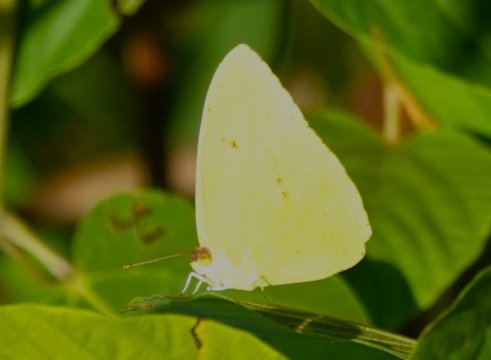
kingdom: Animalia
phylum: Arthropoda
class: Insecta
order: Lepidoptera
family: Pieridae
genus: Phoebis
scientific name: Phoebis sennae
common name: Cloudless Sulphur
